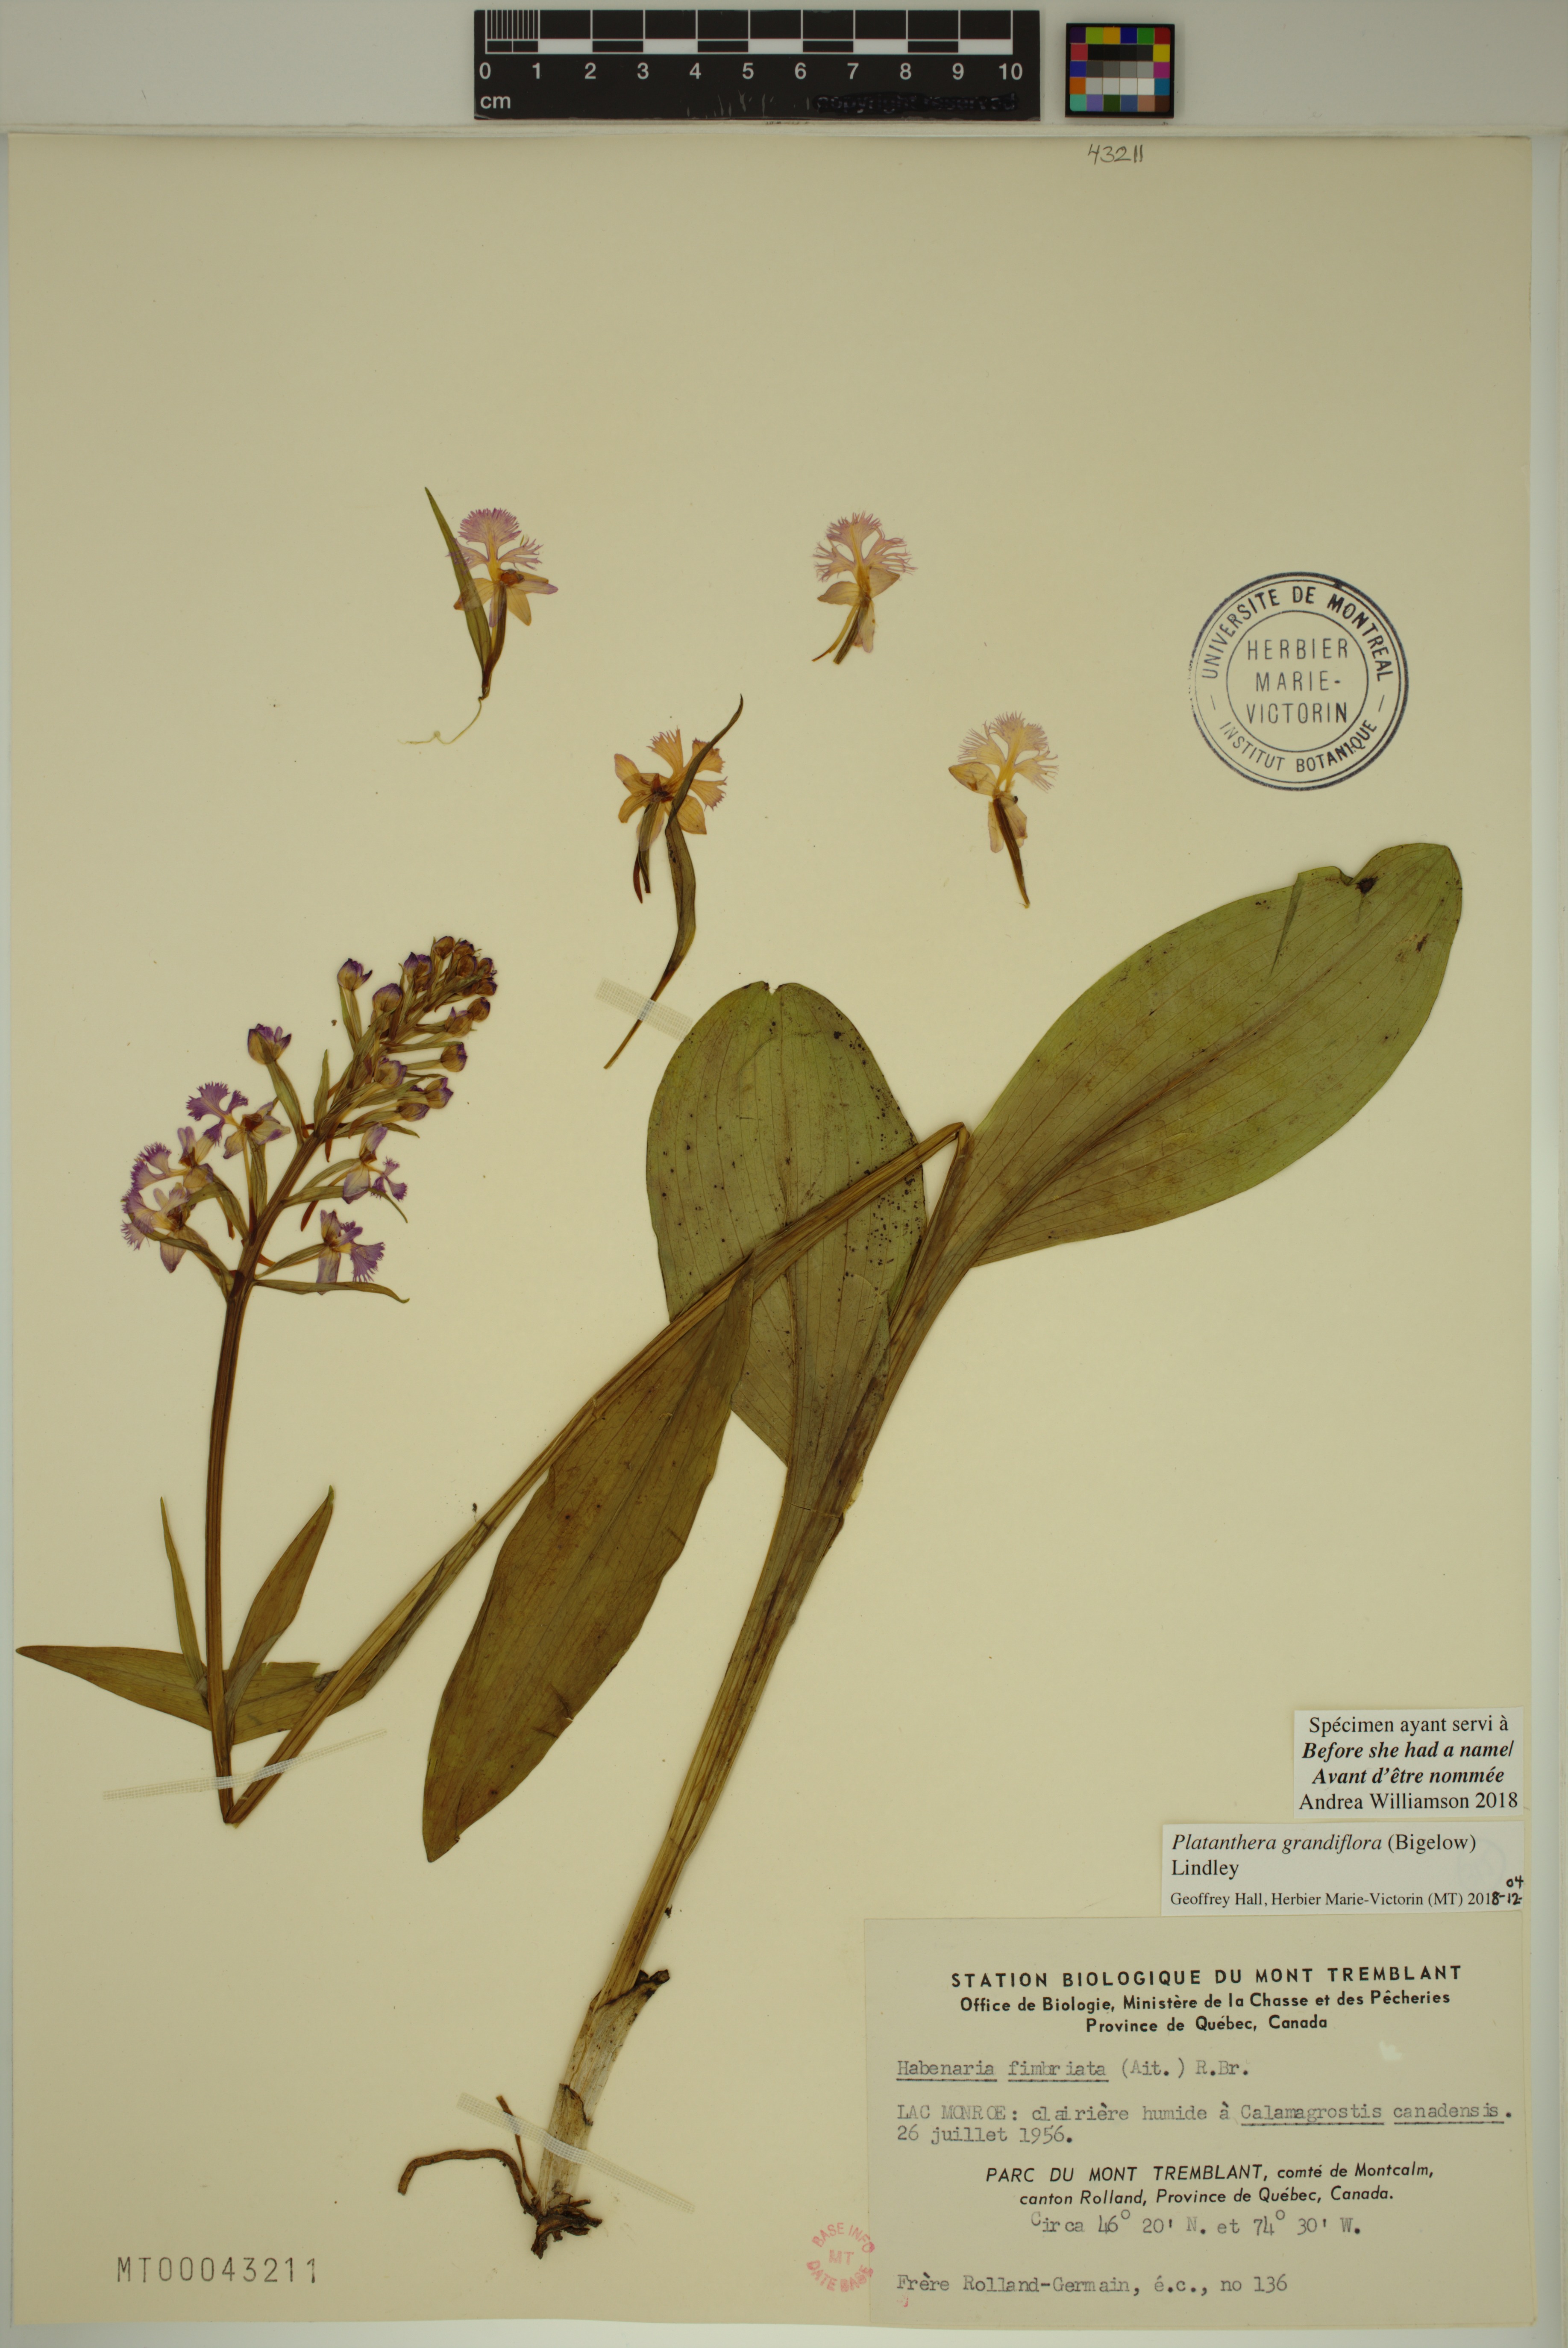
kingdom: Plantae
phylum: Tracheophyta
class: Liliopsida
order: Asparagales
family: Orchidaceae
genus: Platanthera
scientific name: Platanthera grandiflora
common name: Greater purple fringed orchid
